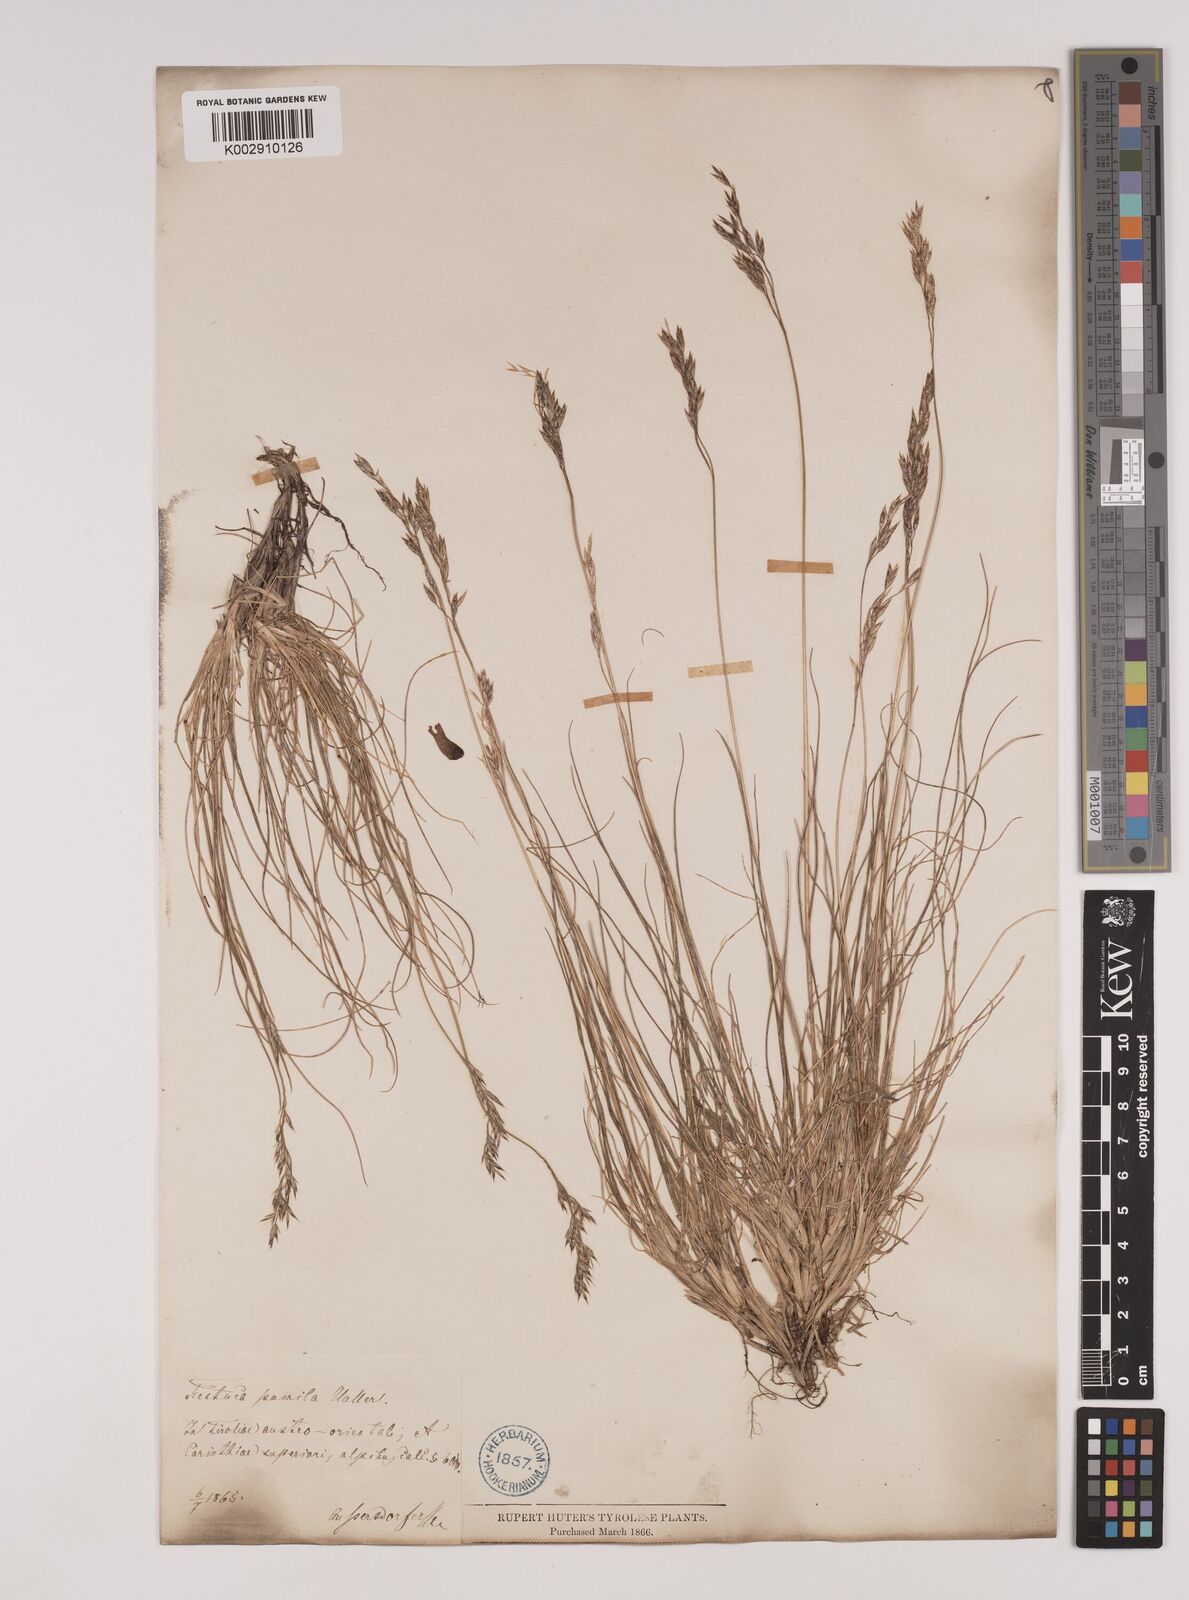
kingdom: Plantae
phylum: Tracheophyta
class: Liliopsida
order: Poales
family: Poaceae
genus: Festuca
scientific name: Festuca
